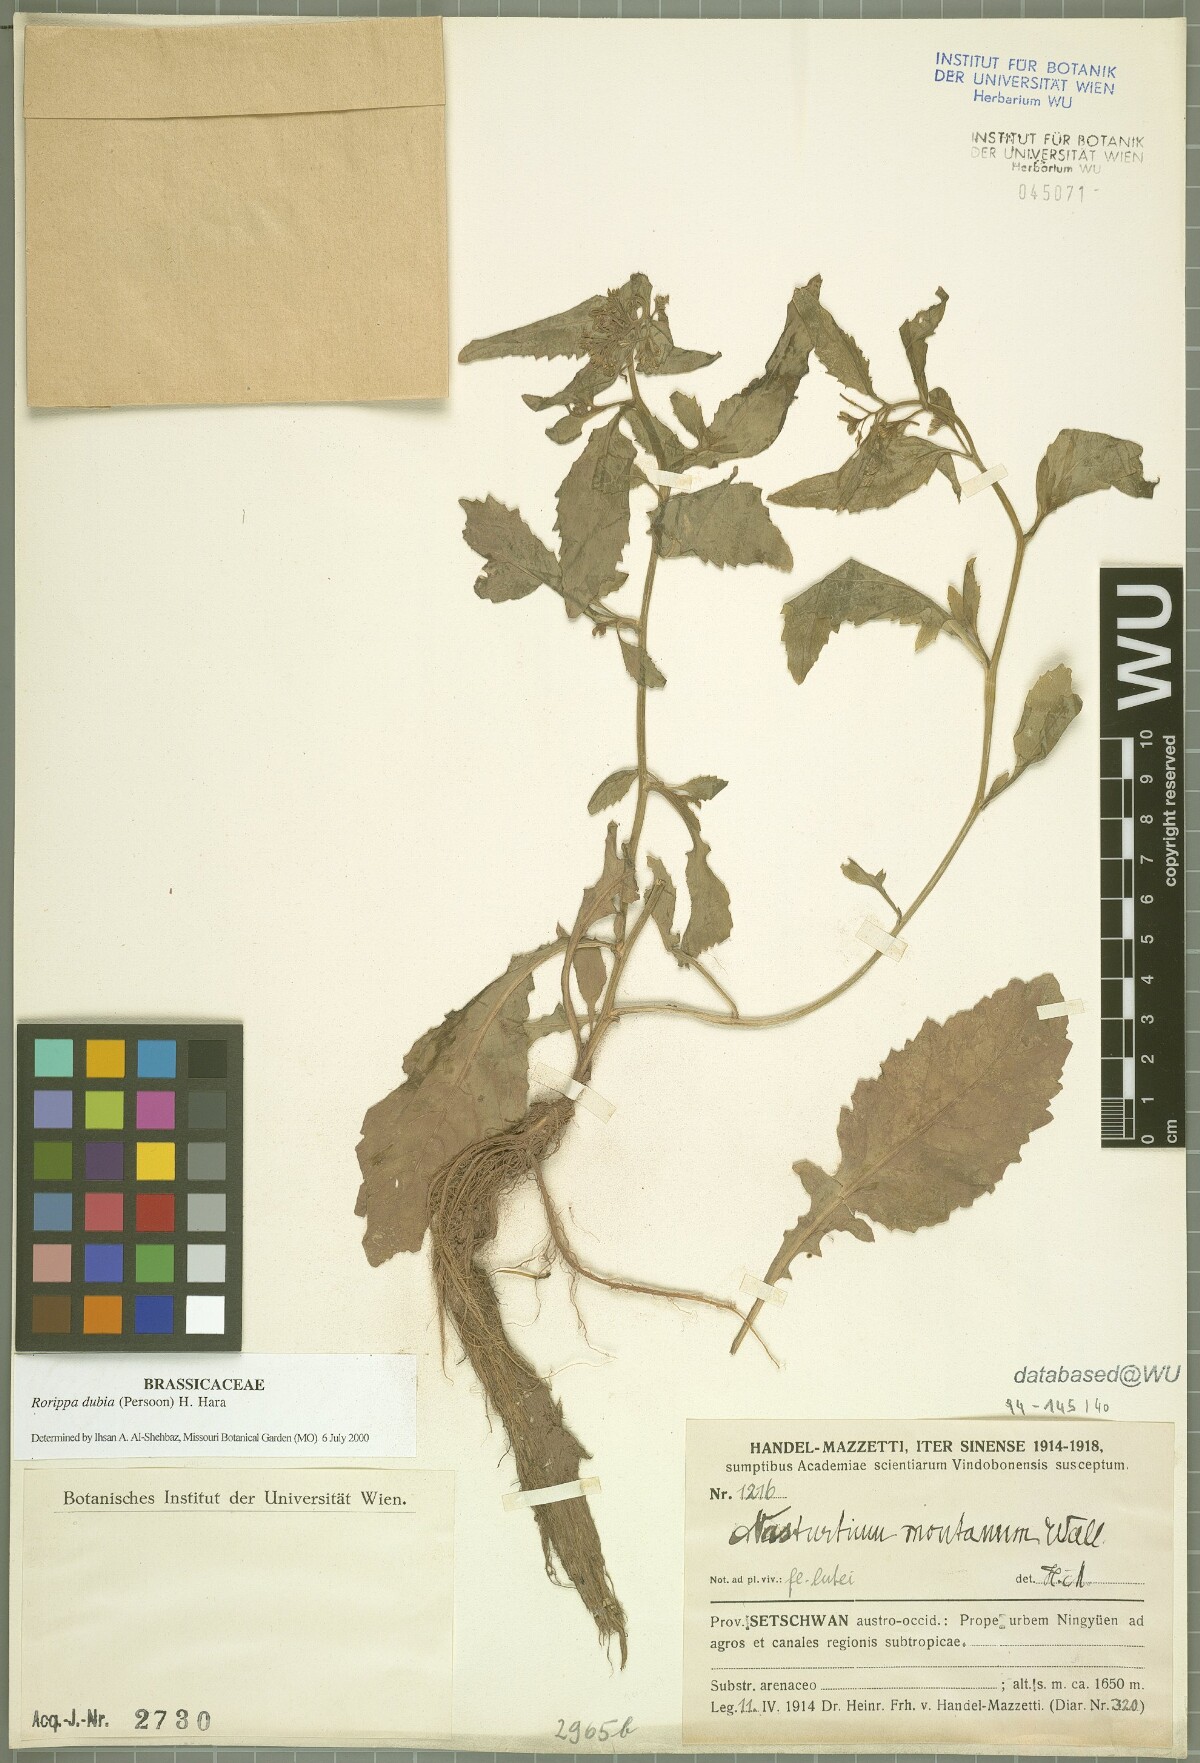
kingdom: Plantae
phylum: Tracheophyta
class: Magnoliopsida
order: Brassicales
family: Brassicaceae
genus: Rorippa
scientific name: Rorippa dubia
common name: Variableleaf yellowcress
